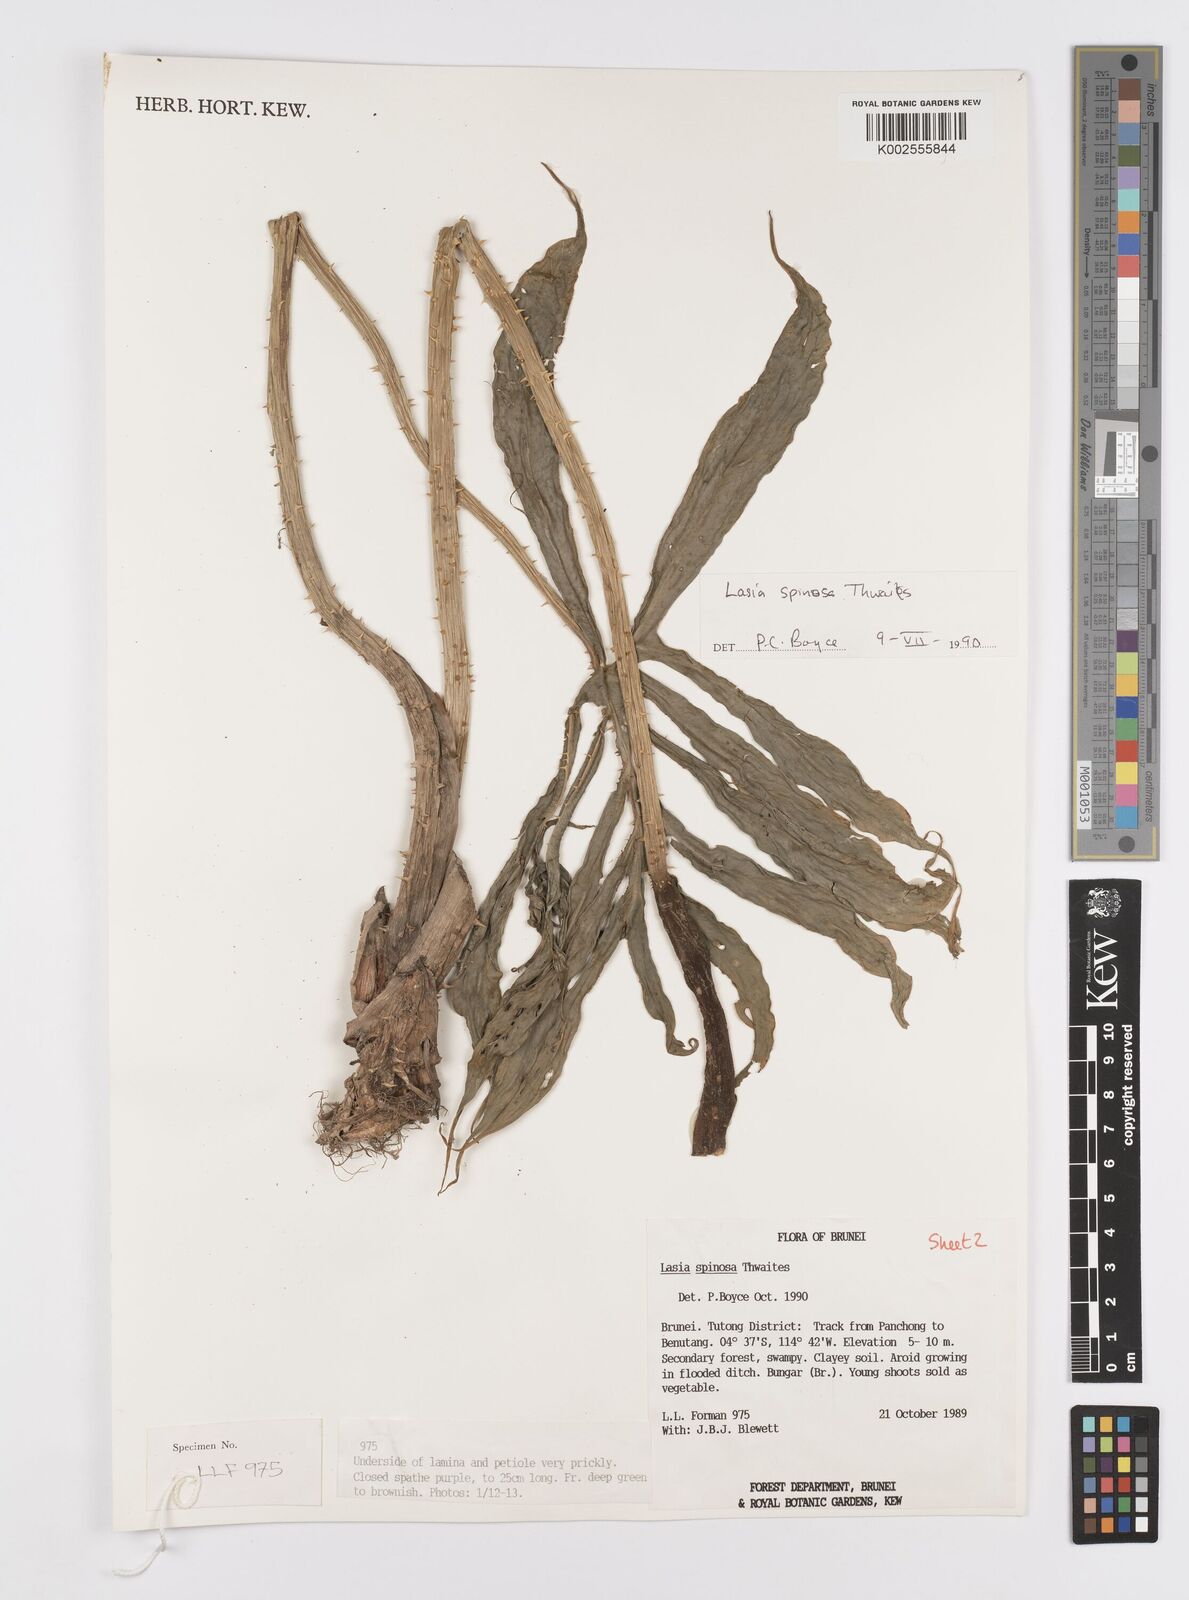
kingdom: Plantae
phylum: Tracheophyta
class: Liliopsida
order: Alismatales
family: Araceae
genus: Lasia
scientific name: Lasia spinosa
